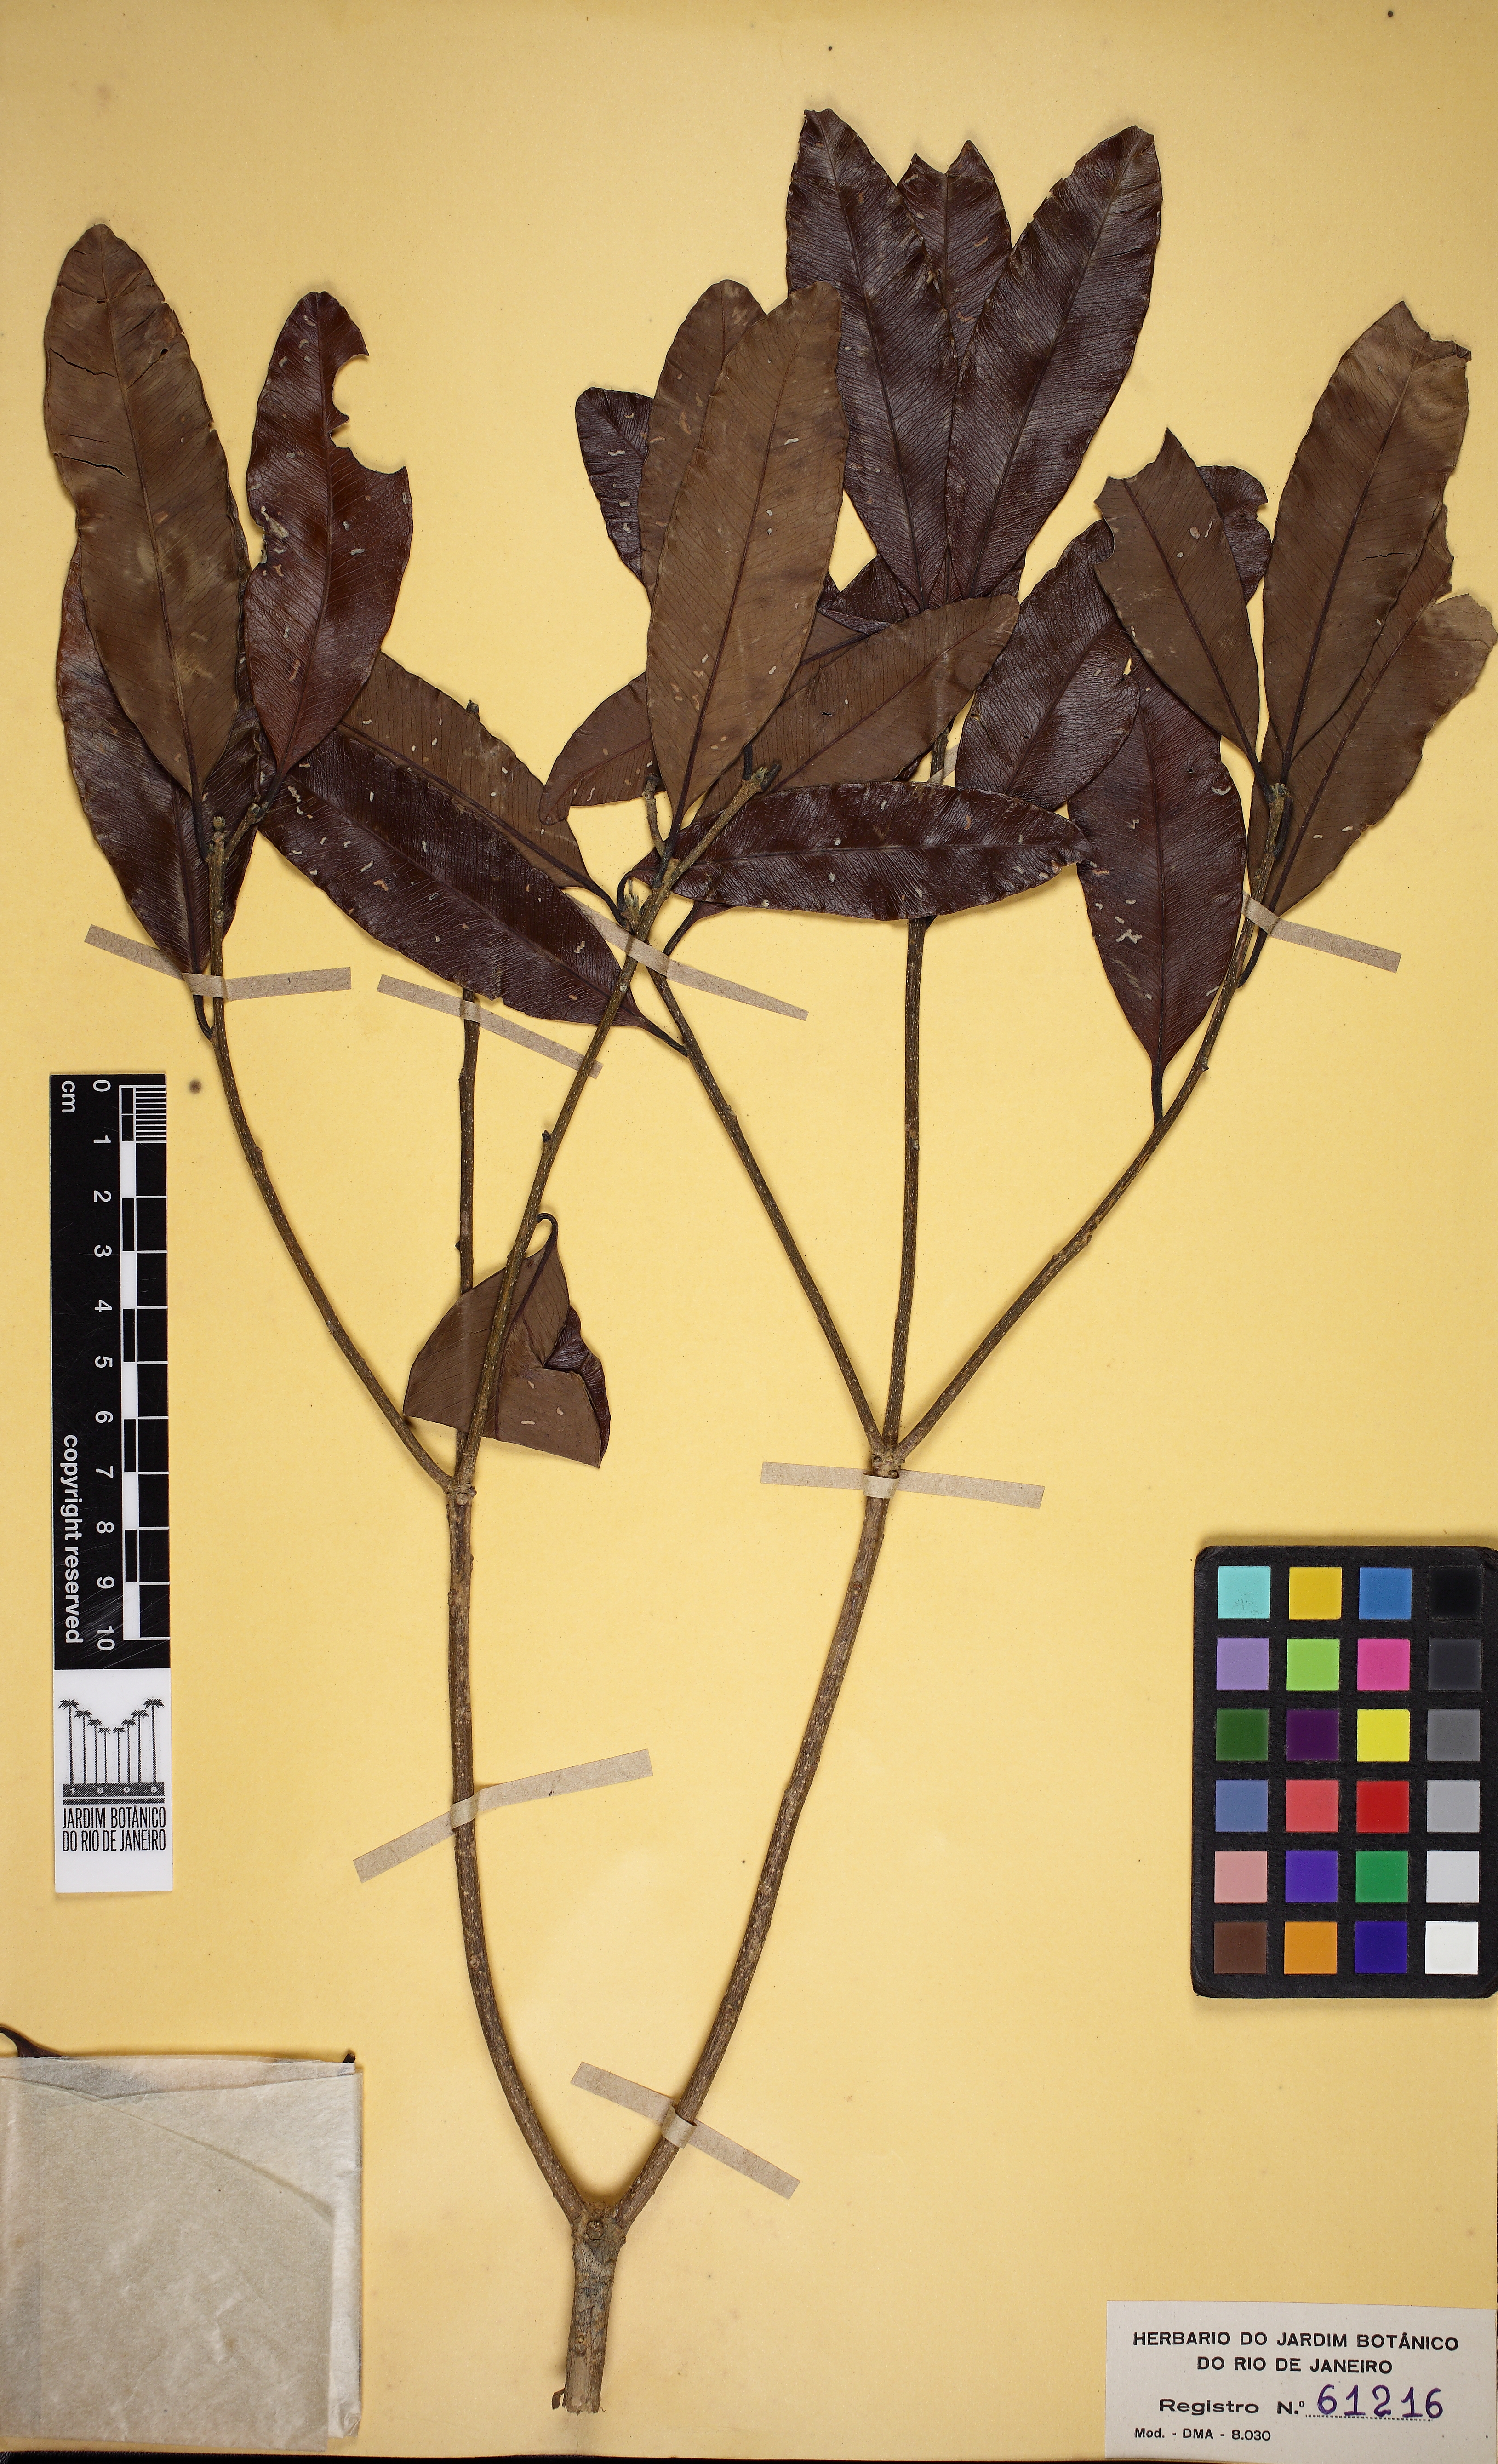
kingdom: Plantae
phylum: Tracheophyta
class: Magnoliopsida
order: Gentianales
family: Apocynaceae
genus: Aspidosperma
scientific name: Aspidosperma polyneuron
